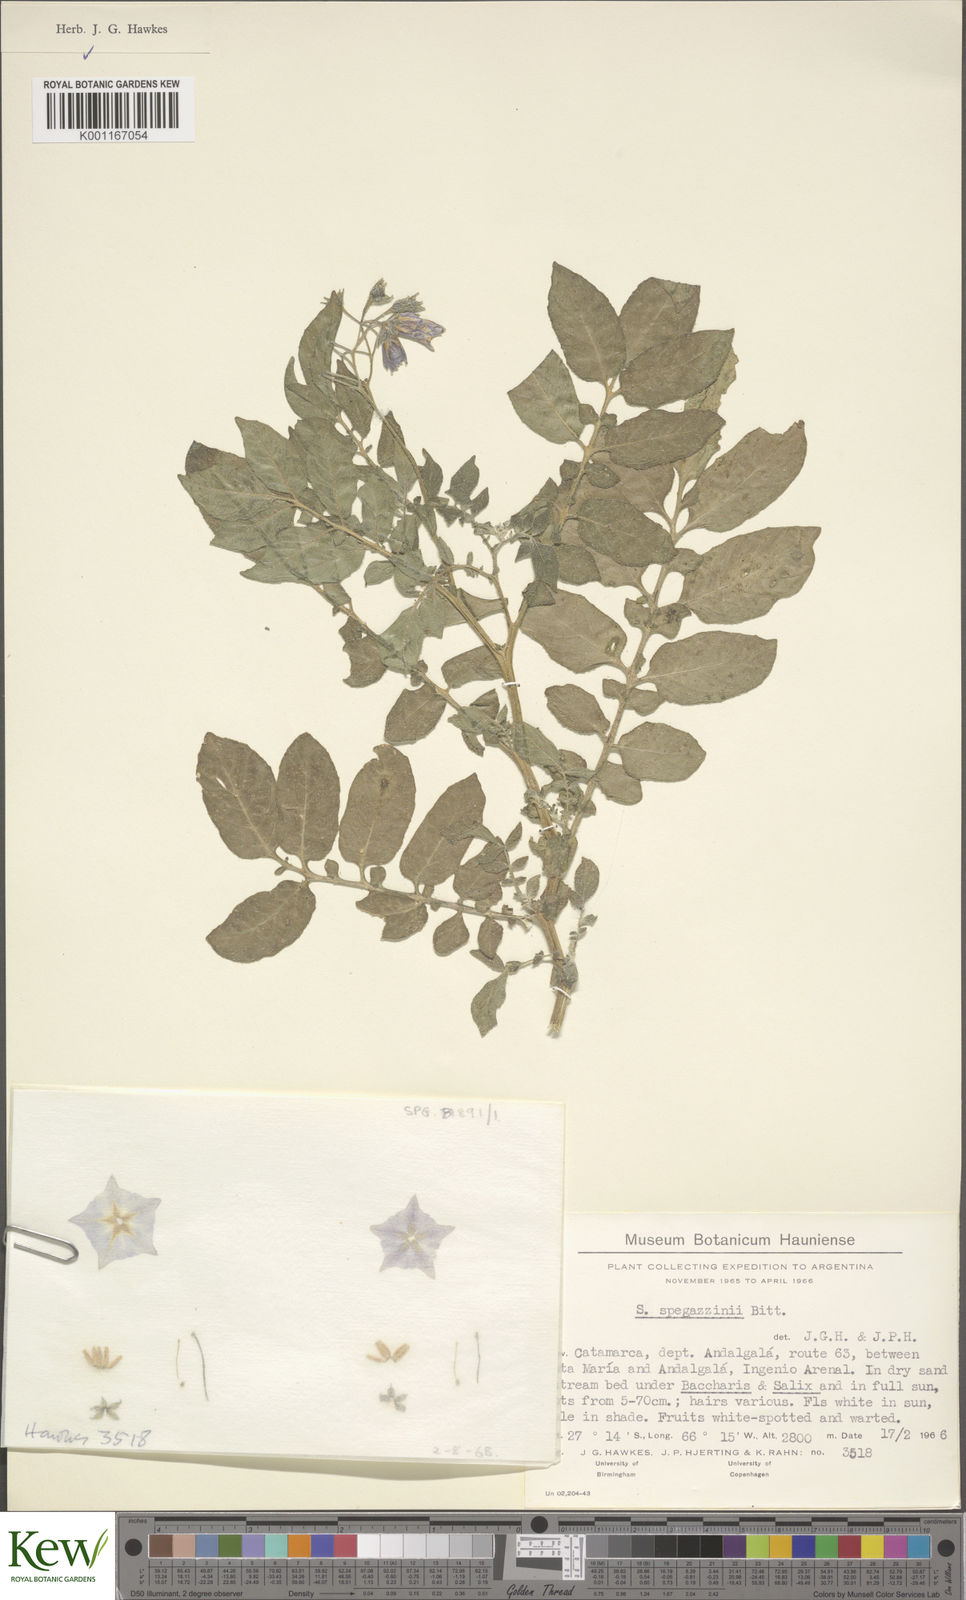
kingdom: Plantae
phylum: Tracheophyta
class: Magnoliopsida
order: Solanales
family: Solanaceae
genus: Solanum
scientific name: Solanum brevicaule
